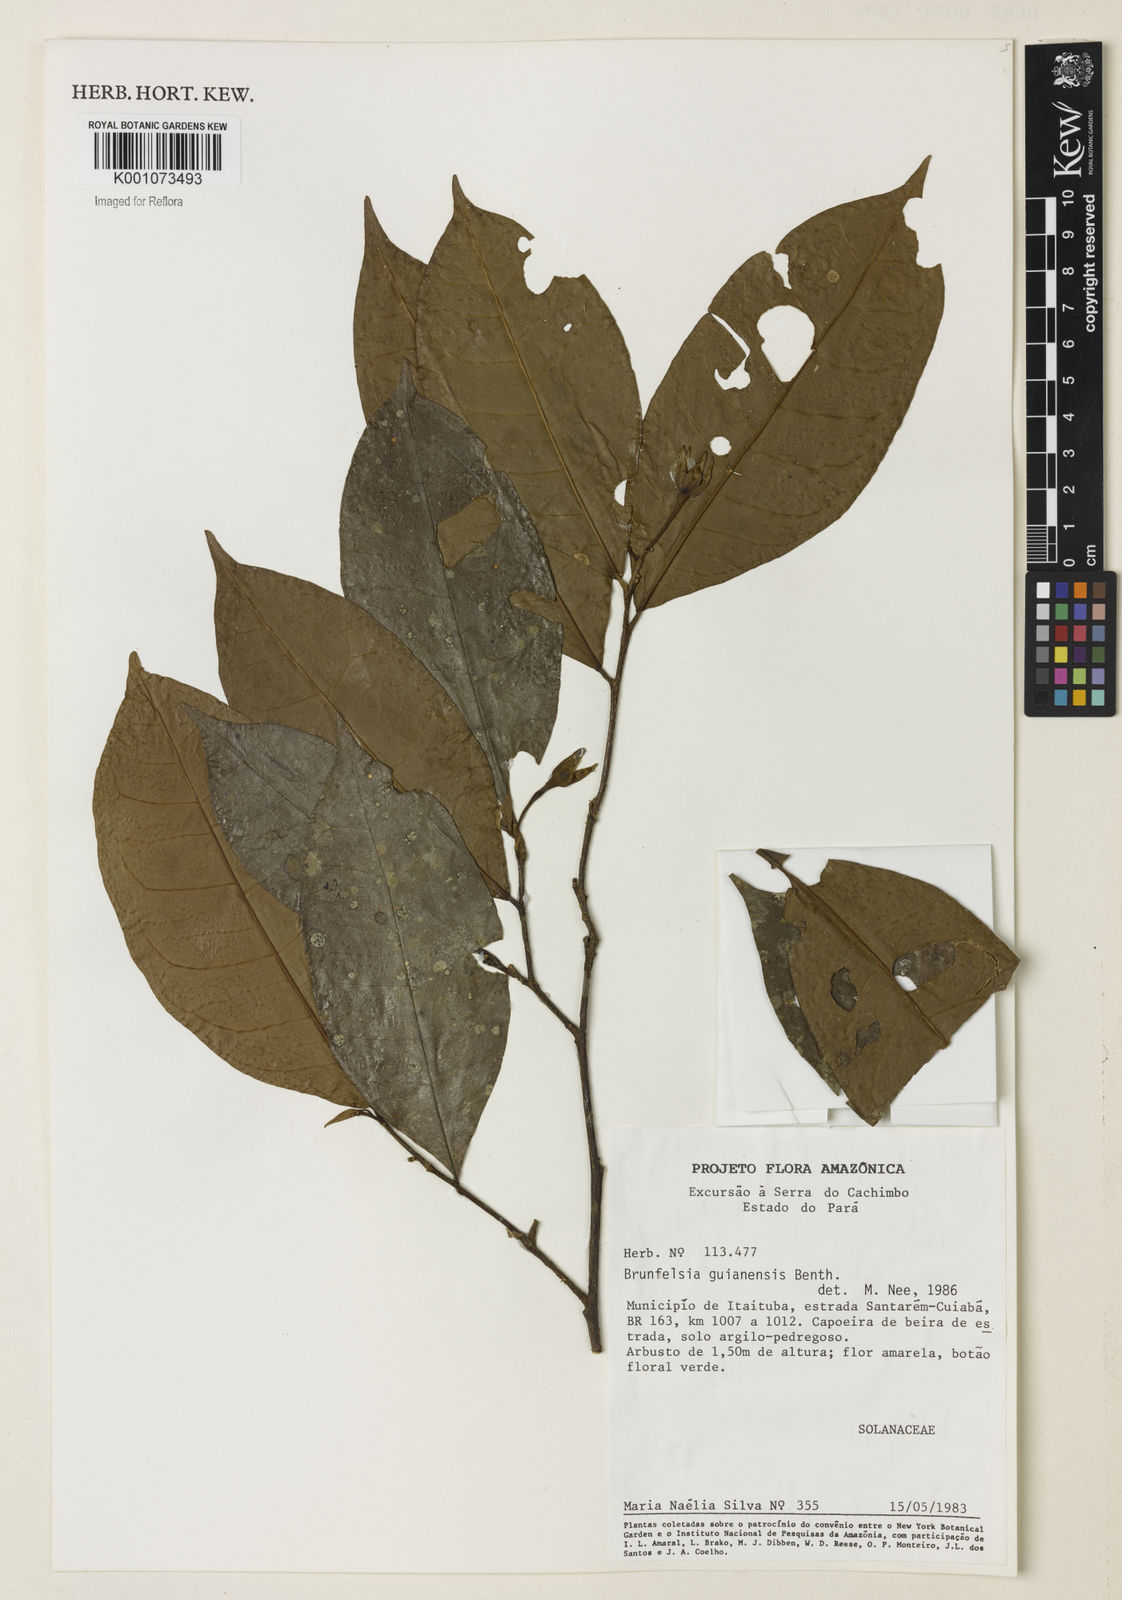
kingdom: Plantae
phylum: Tracheophyta
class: Magnoliopsida
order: Solanales
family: Solanaceae
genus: Brunfelsia
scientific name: Brunfelsia guianensis
